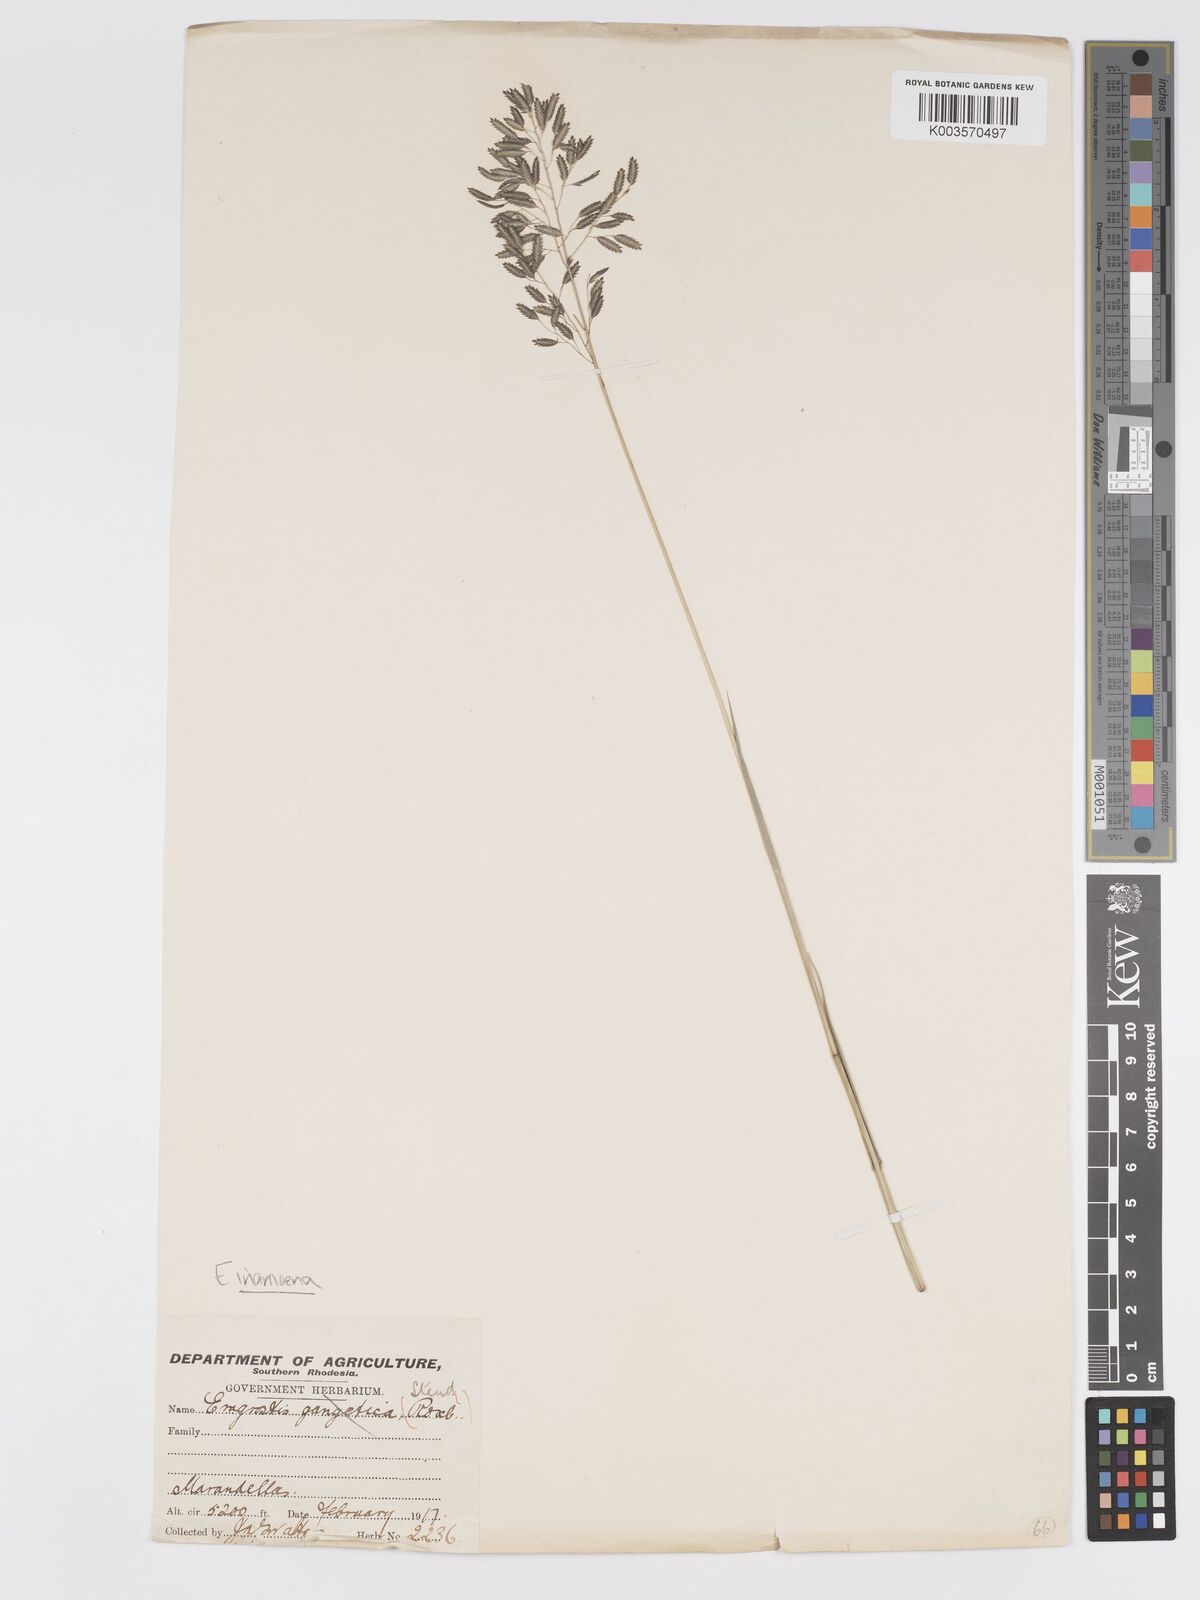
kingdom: Plantae
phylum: Tracheophyta
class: Liliopsida
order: Poales
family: Poaceae
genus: Eragrostis
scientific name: Eragrostis inamoena
